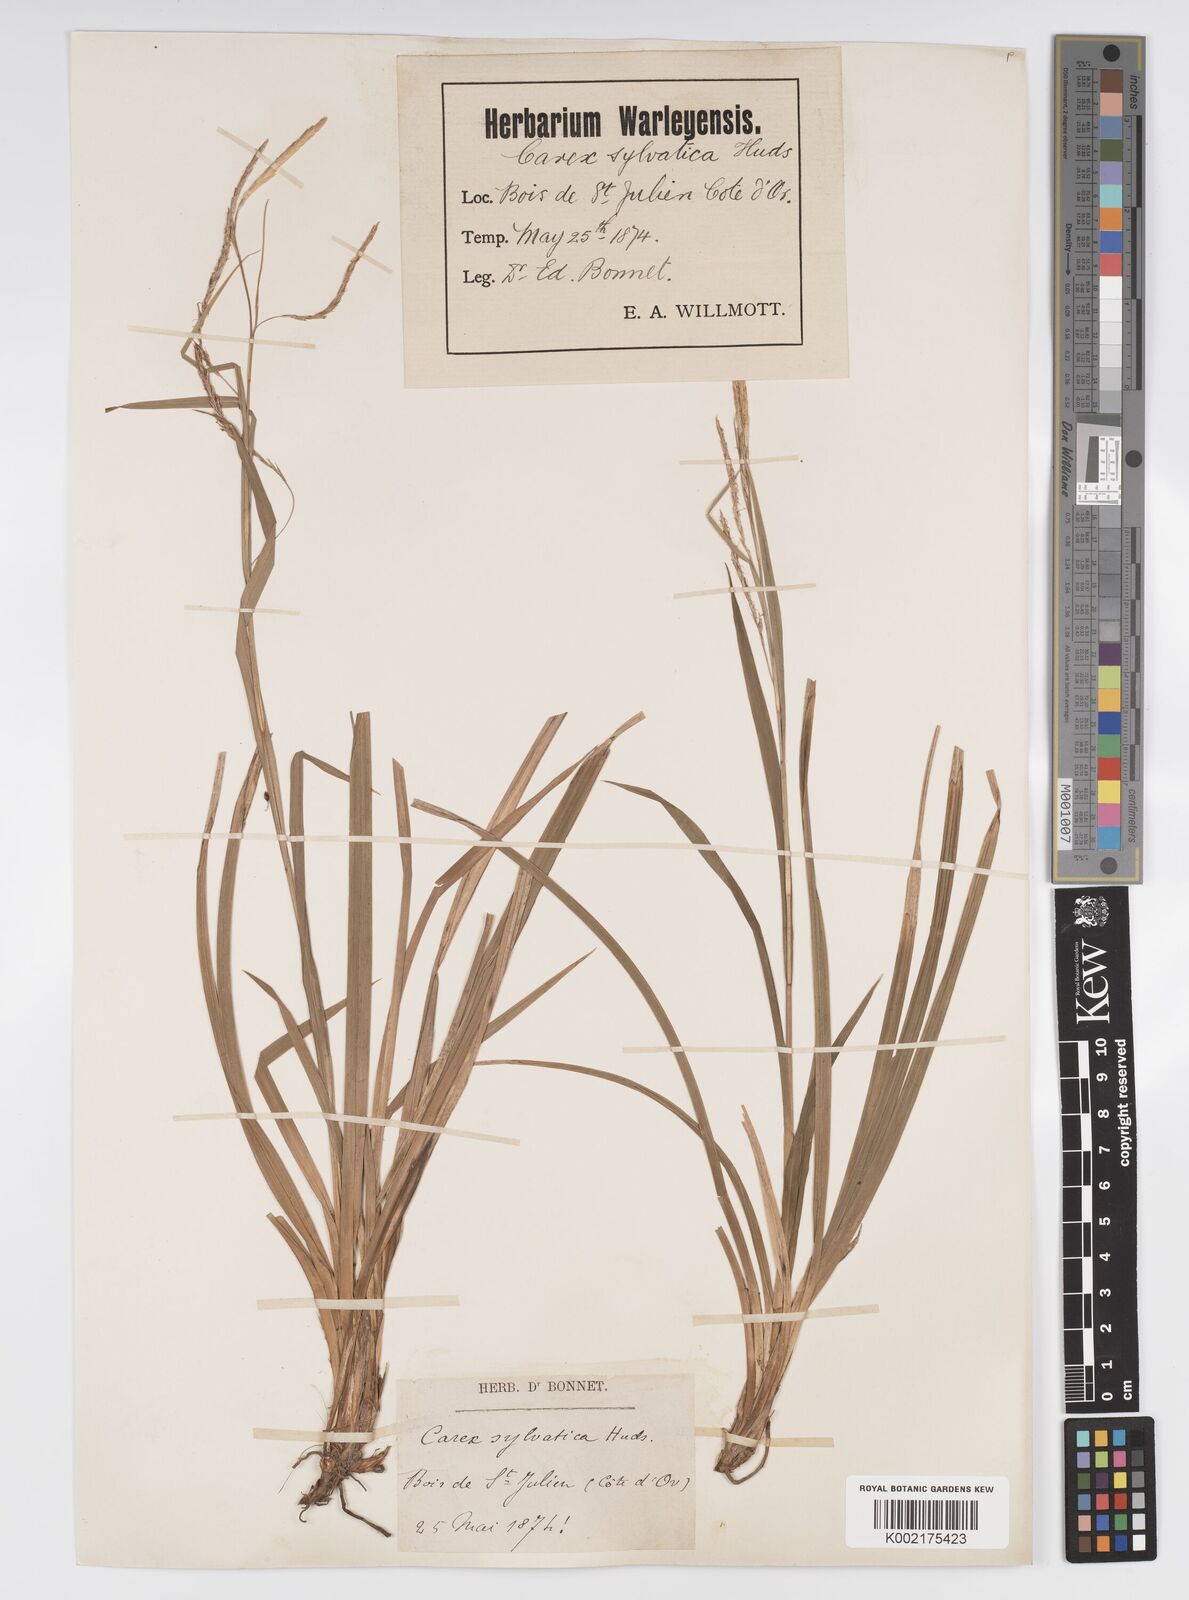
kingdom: Plantae
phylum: Tracheophyta
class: Liliopsida
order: Poales
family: Cyperaceae
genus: Carex
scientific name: Carex sylvatica
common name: Wood-sedge
